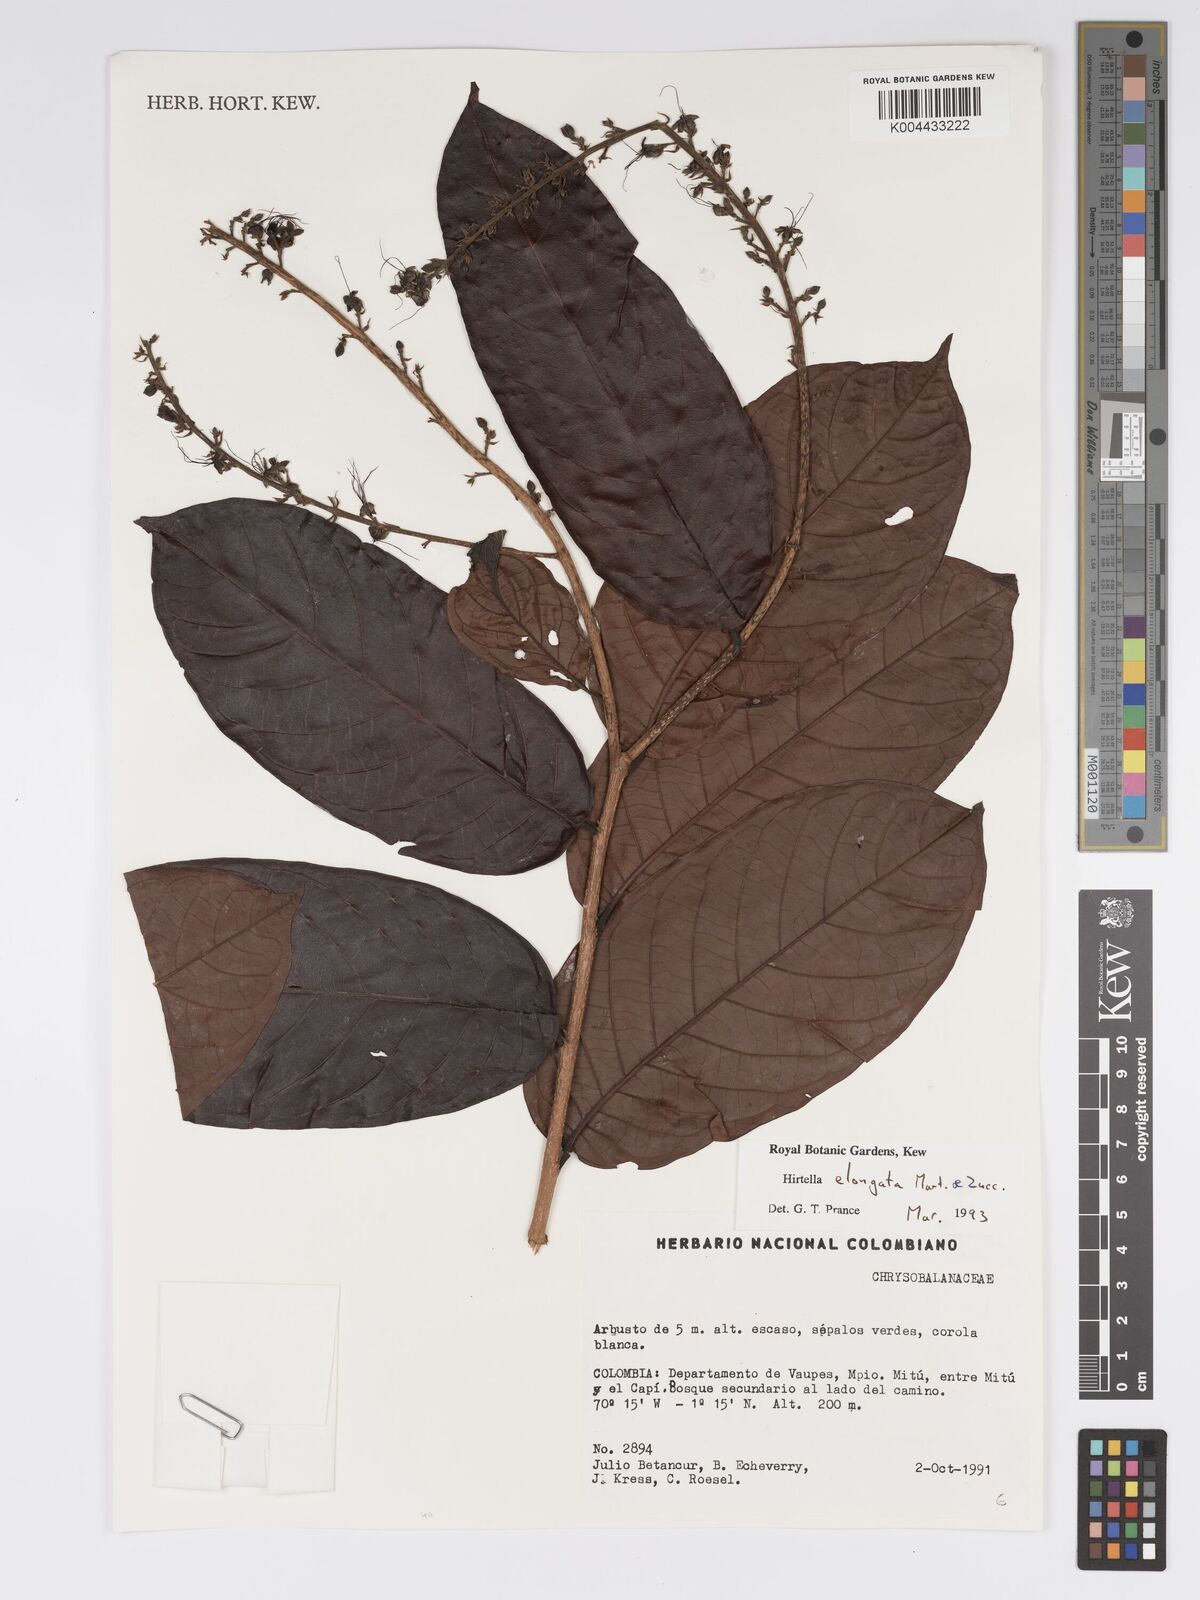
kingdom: Plantae
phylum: Tracheophyta
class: Magnoliopsida
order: Malpighiales
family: Chrysobalanaceae
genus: Hirtella
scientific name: Hirtella elongata
